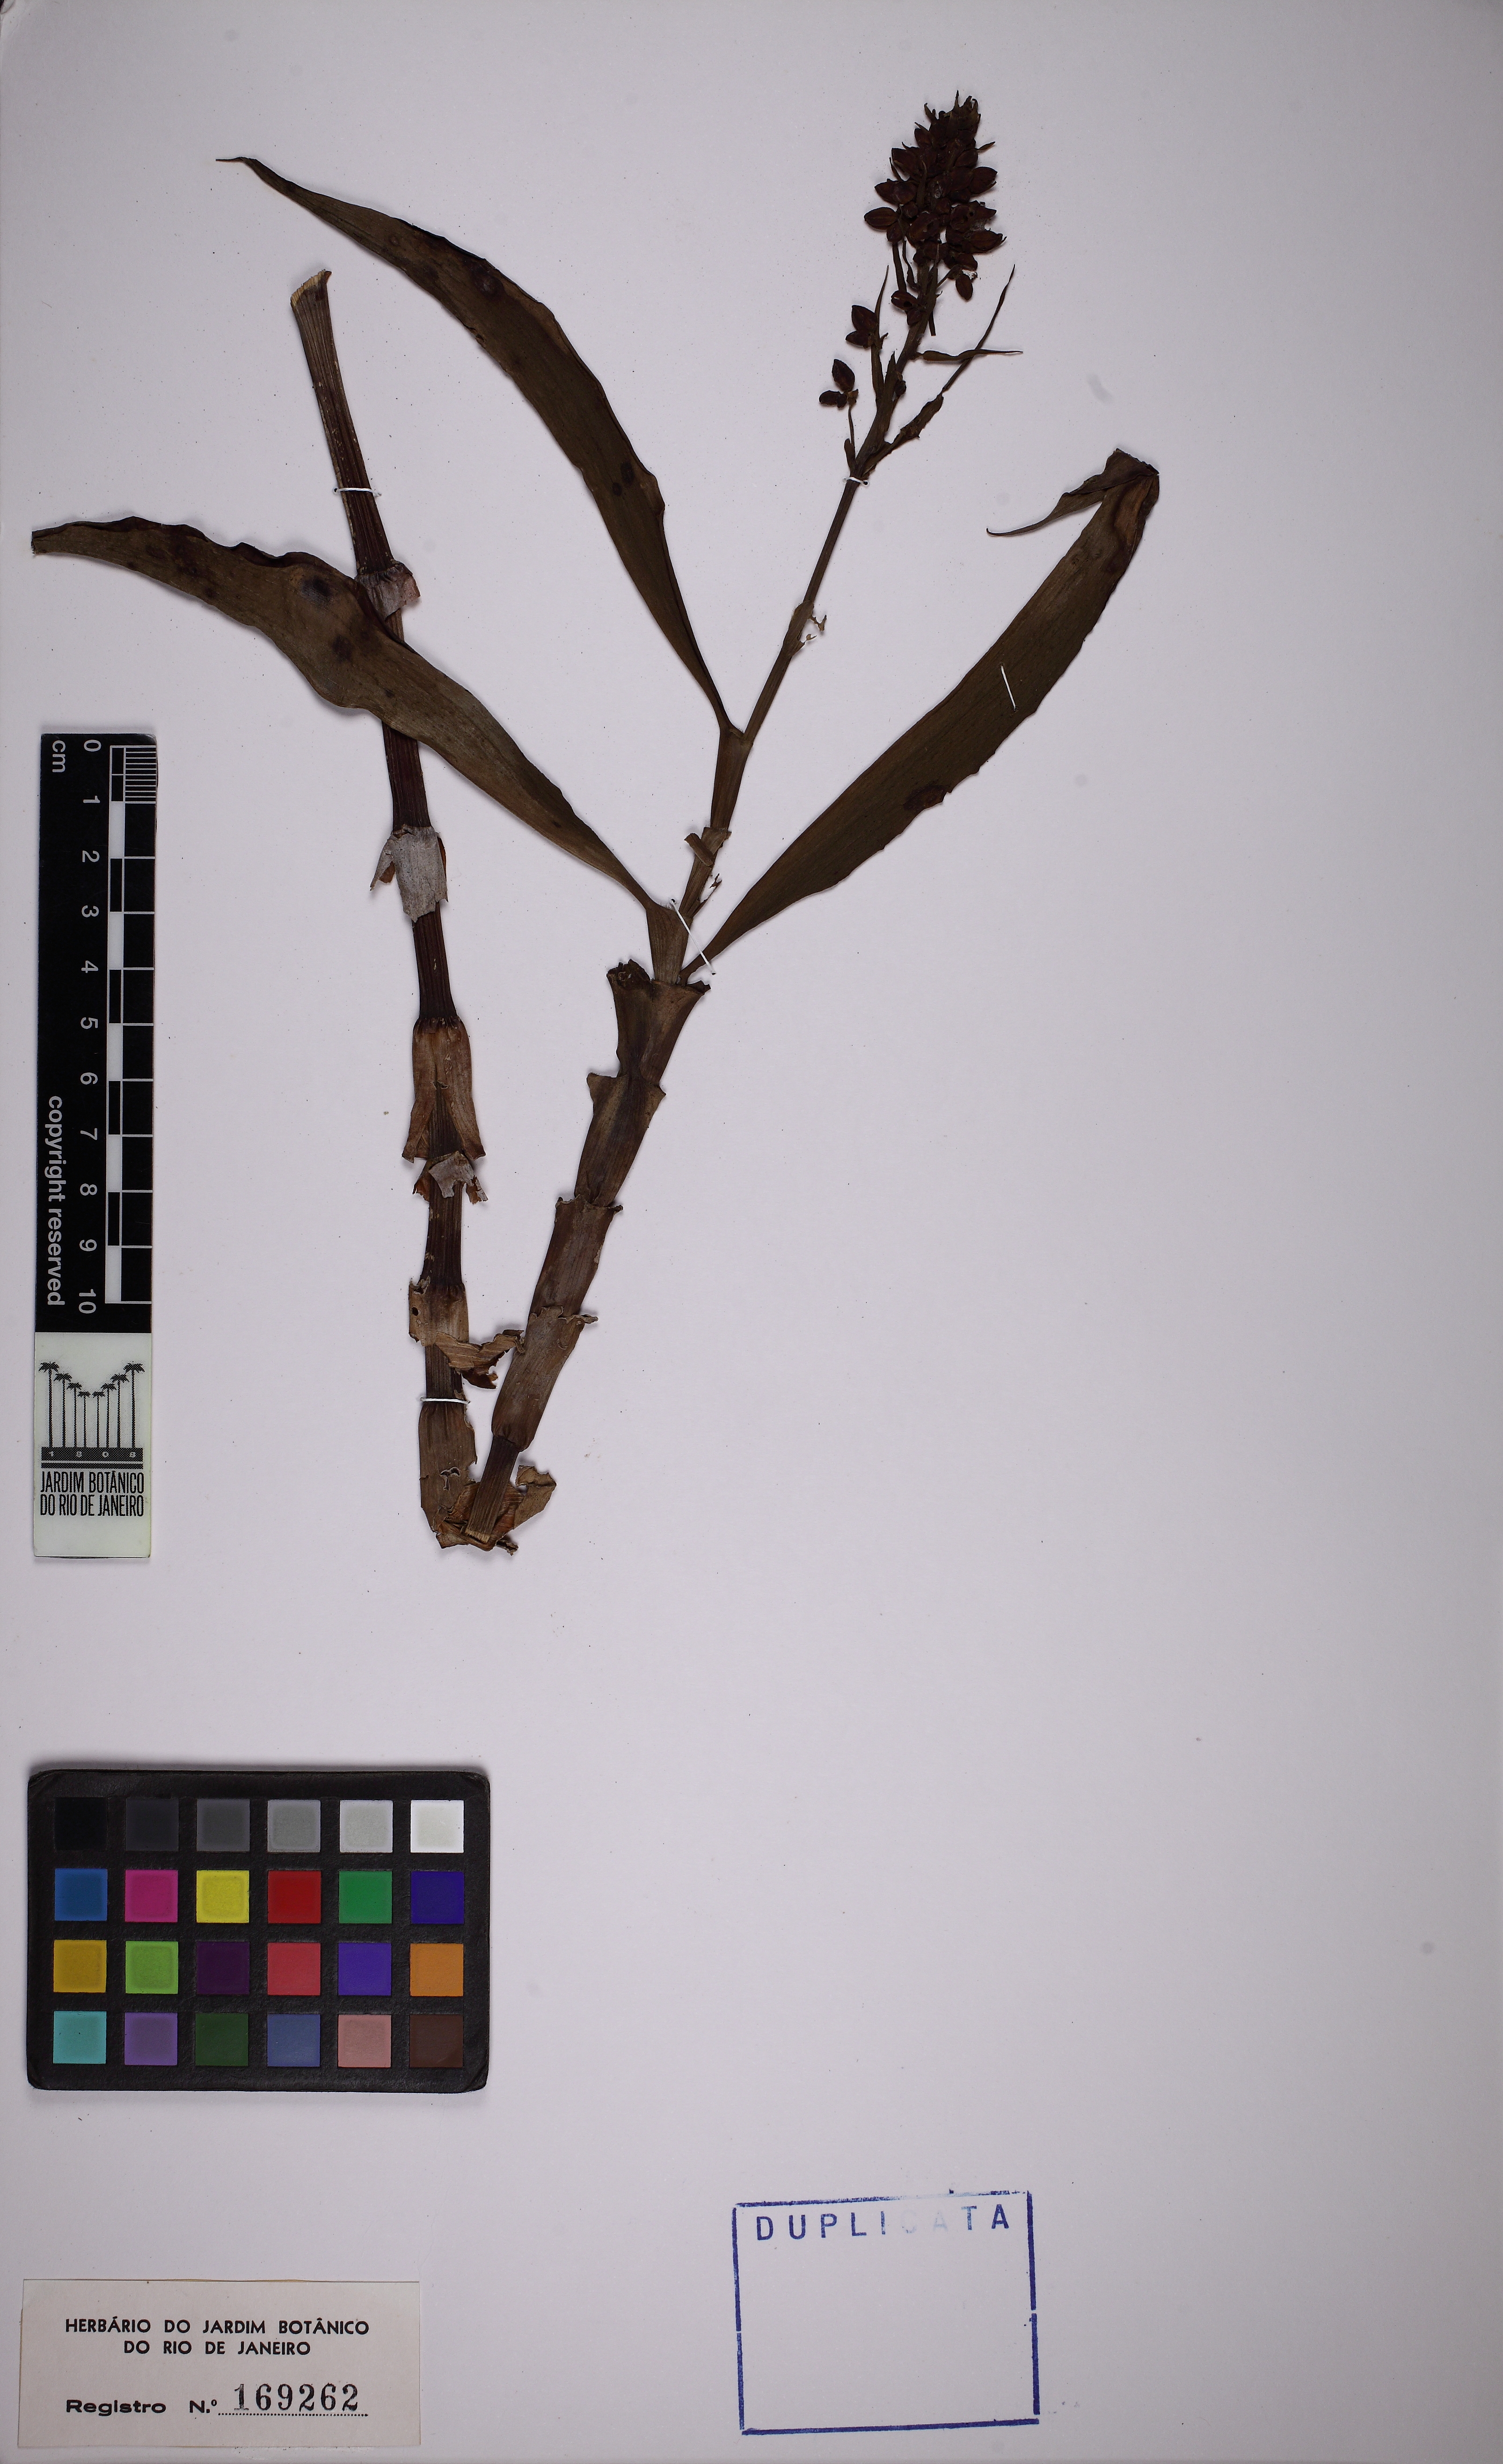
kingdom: Plantae
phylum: Tracheophyta
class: Liliopsida
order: Commelinales
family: Commelinaceae
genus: Dichorisandra
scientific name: Dichorisandra thyrsiflora
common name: Blue-ginger
